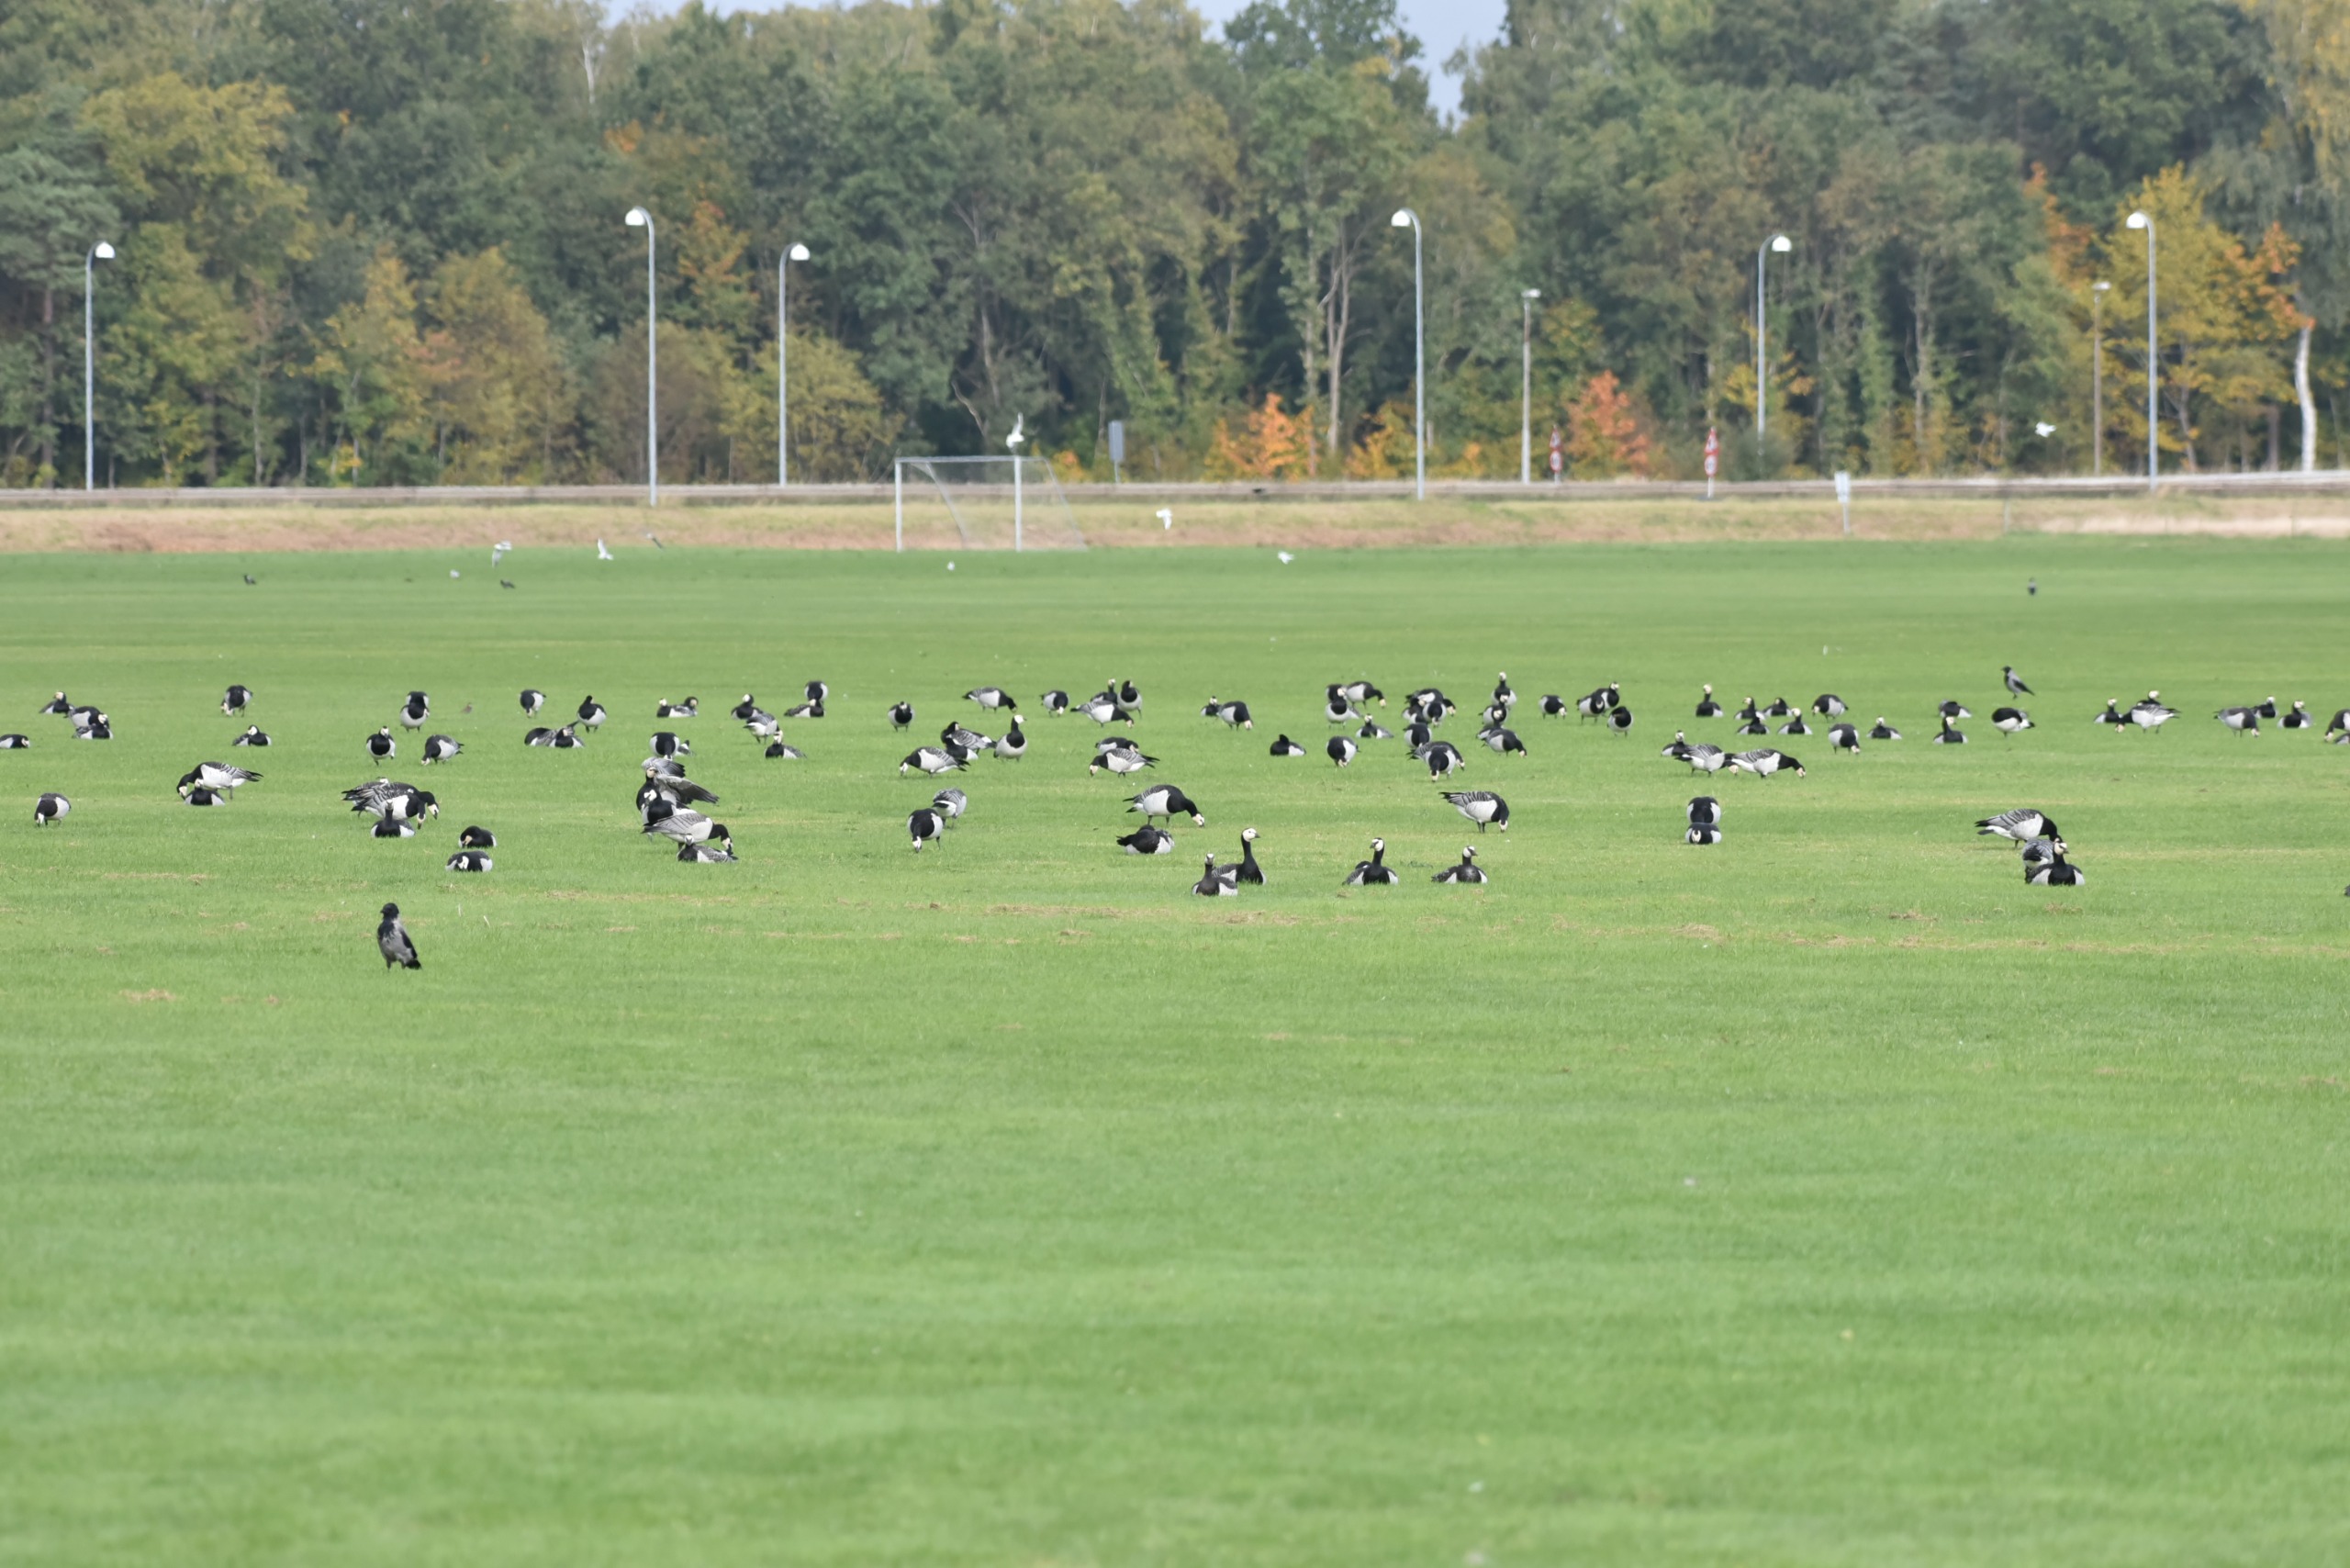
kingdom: Animalia
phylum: Chordata
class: Aves
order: Anseriformes
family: Anatidae
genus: Branta
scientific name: Branta leucopsis
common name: Bramgås
